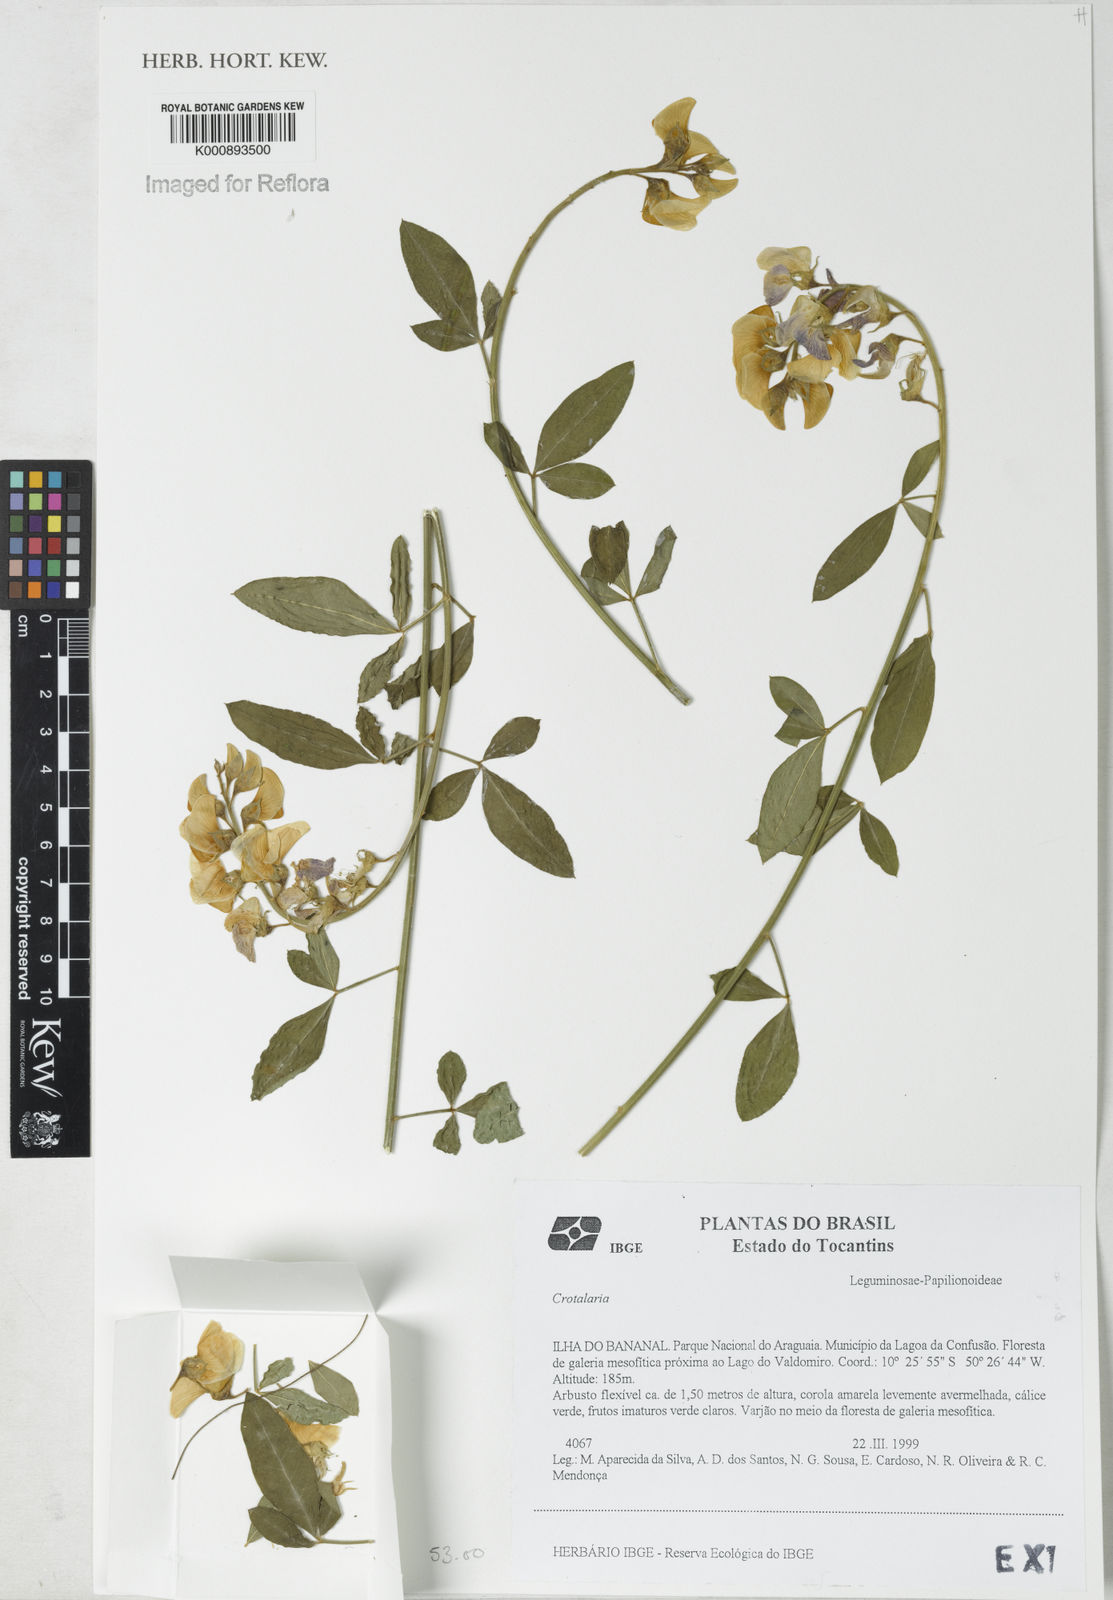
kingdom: Plantae
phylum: Tracheophyta
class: Magnoliopsida
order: Fabales
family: Fabaceae
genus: Crotalaria
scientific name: Crotalaria maypurensis
